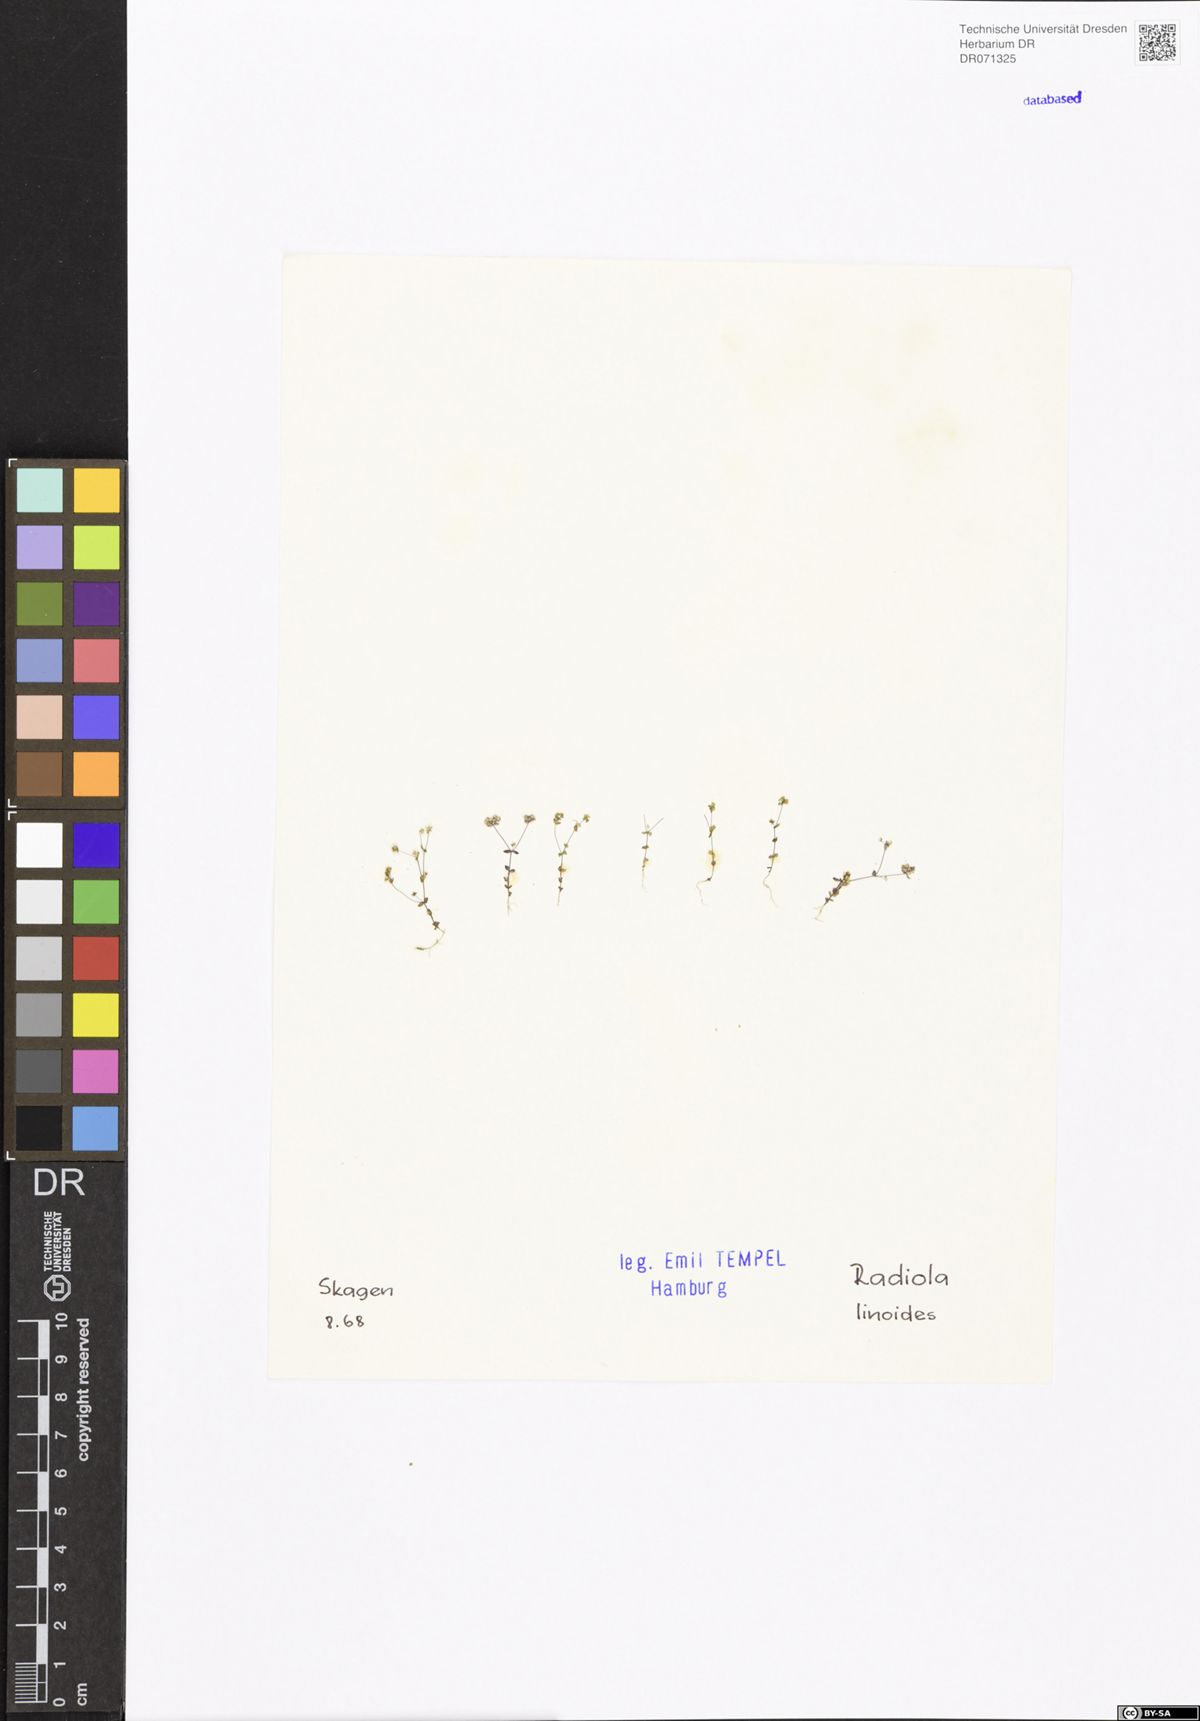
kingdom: Plantae
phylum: Tracheophyta
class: Magnoliopsida
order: Malpighiales
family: Linaceae
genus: Radiola
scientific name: Radiola linoides
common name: Allseed
